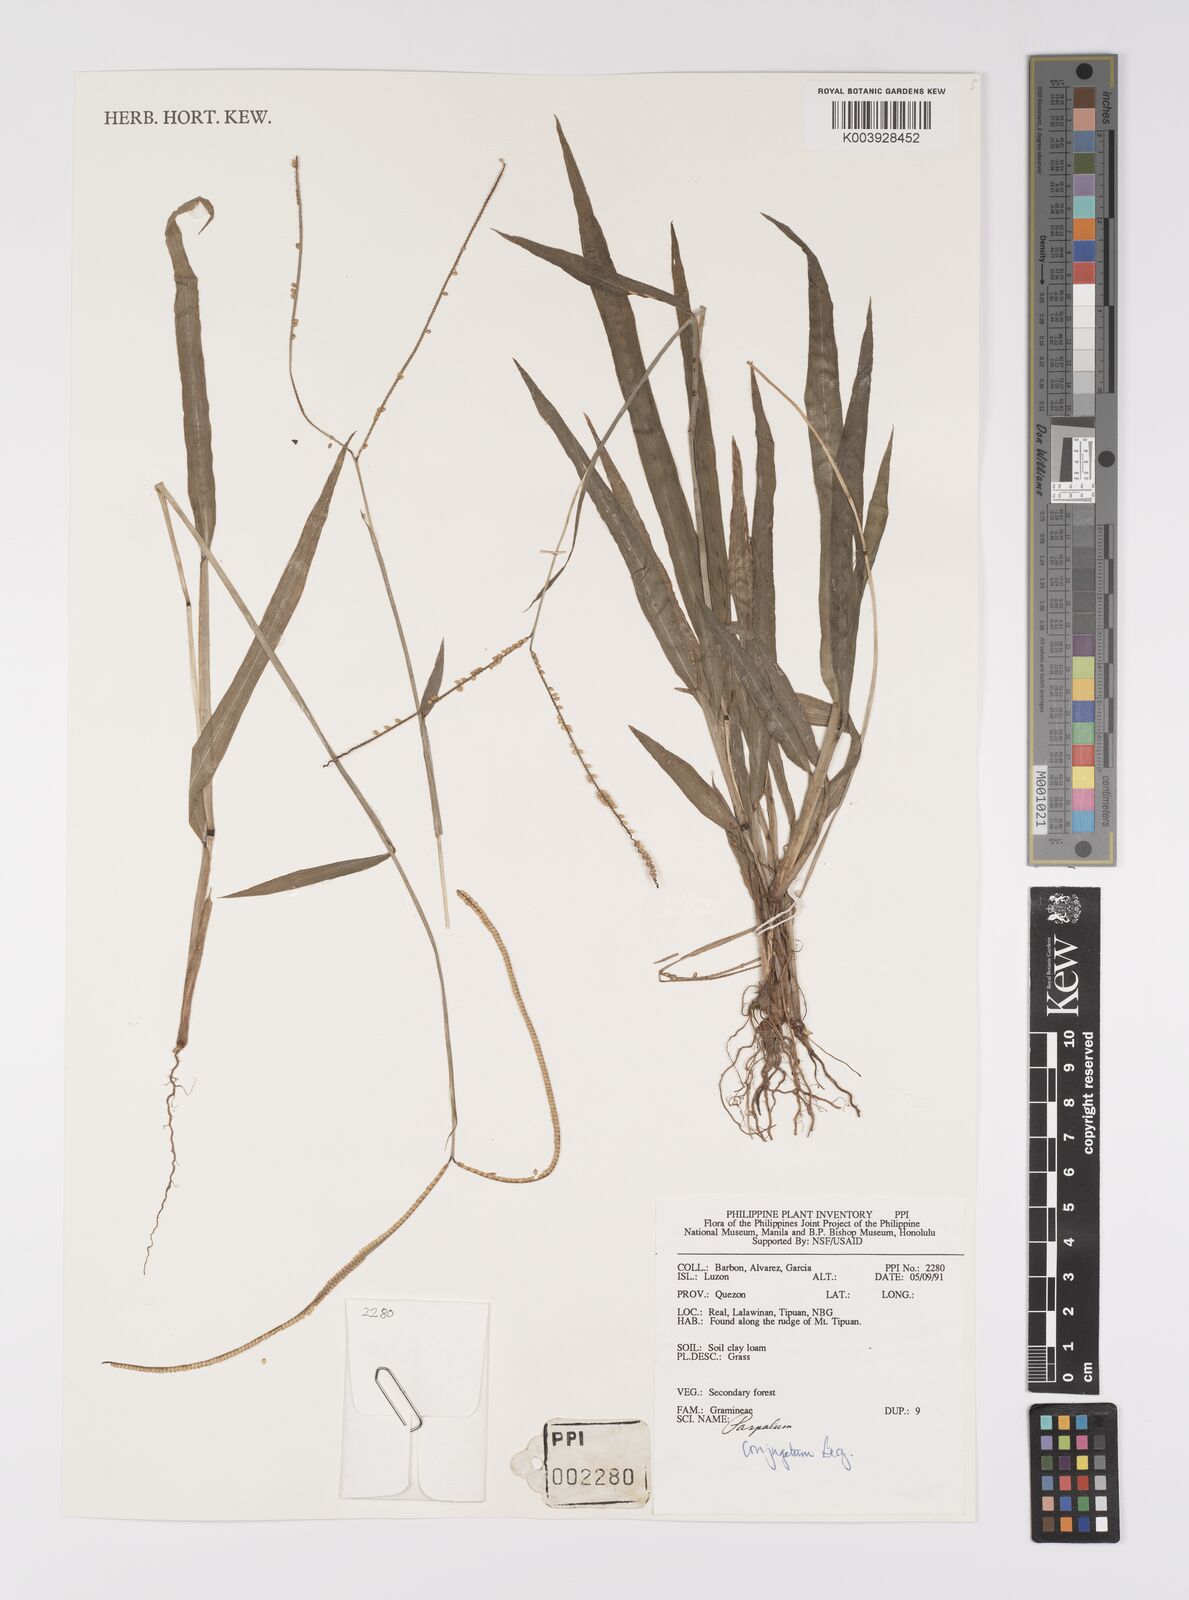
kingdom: Plantae
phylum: Tracheophyta
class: Liliopsida
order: Poales
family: Poaceae
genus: Paspalum
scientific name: Paspalum conjugatum
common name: Hilograss
